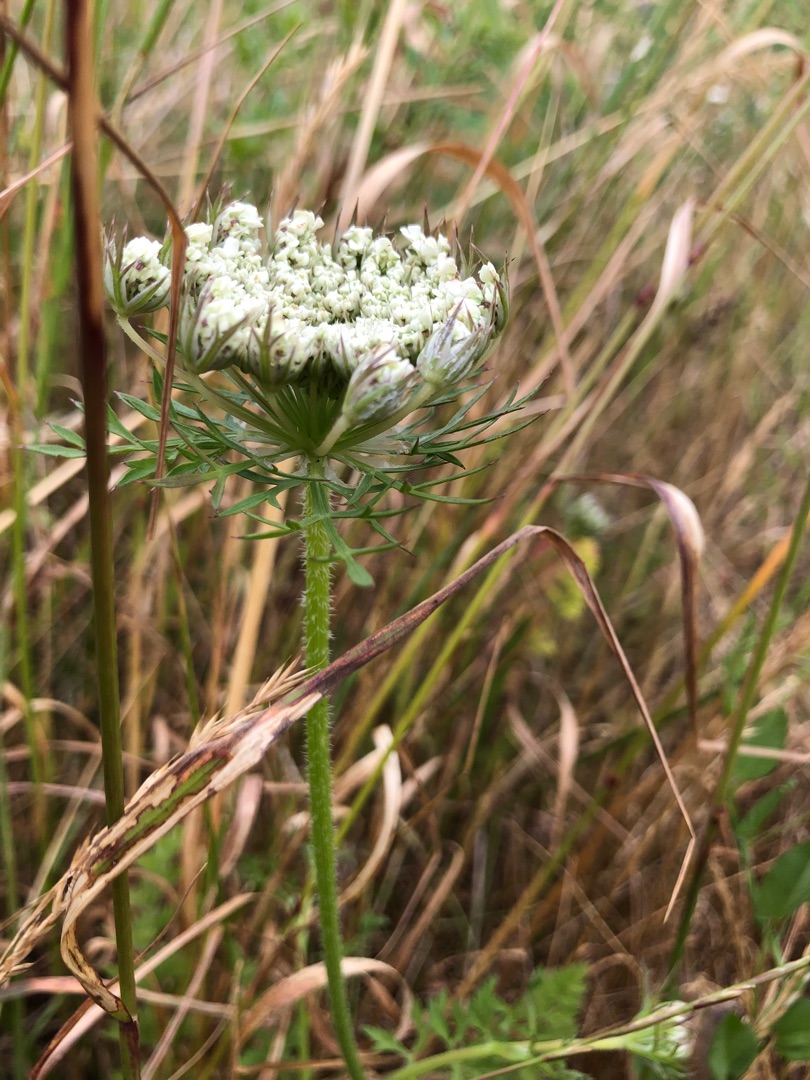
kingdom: Plantae
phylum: Tracheophyta
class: Magnoliopsida
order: Apiales
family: Apiaceae
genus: Daucus
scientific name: Daucus carota
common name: Gulerod
